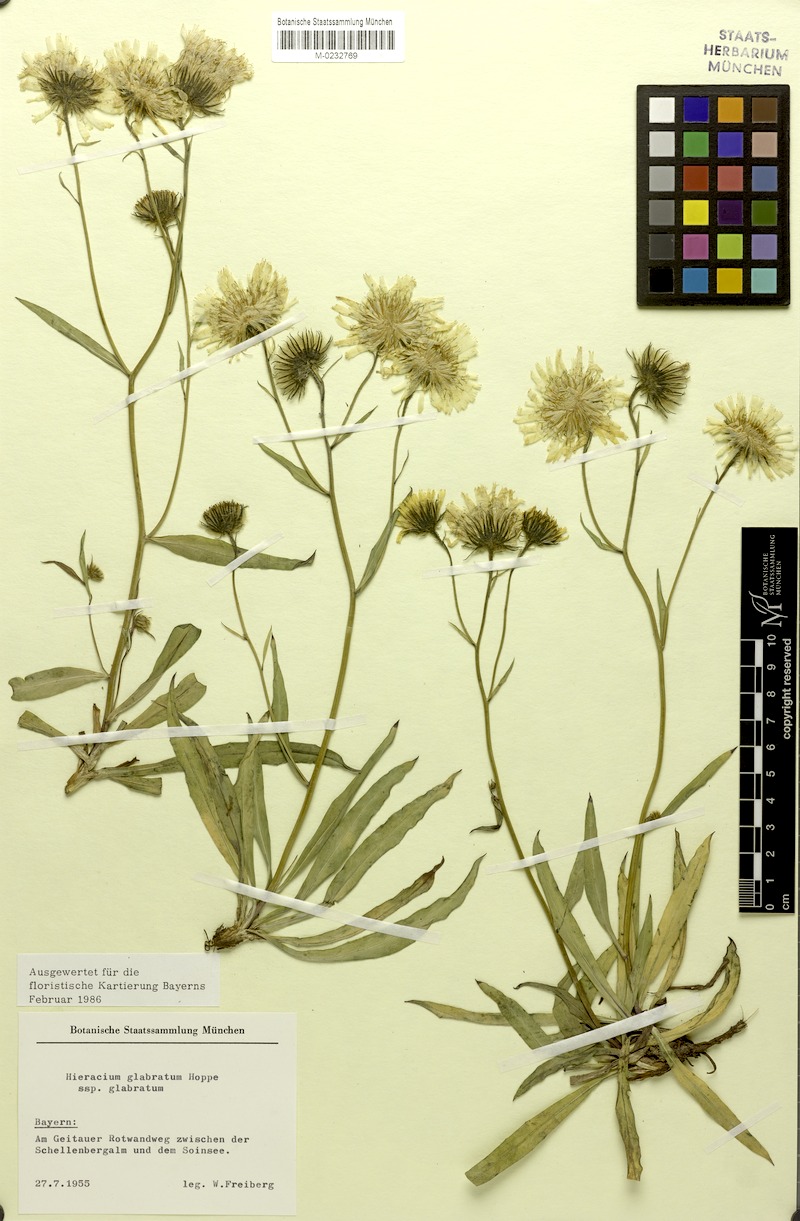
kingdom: Plantae
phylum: Tracheophyta
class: Magnoliopsida
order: Asterales
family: Asteraceae
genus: Hieracium
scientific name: Hieracium glabratum
